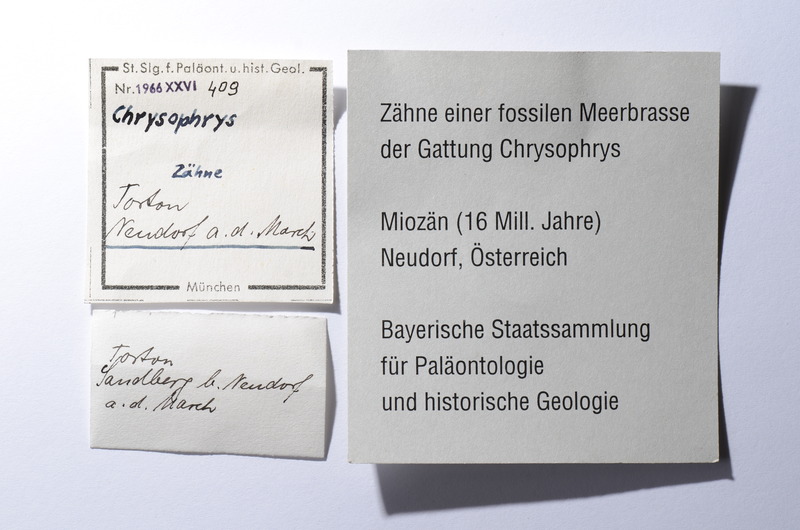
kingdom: Animalia
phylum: Chordata
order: Perciformes
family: Sparidae
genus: Chrysophrys
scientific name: Chrysophrys
